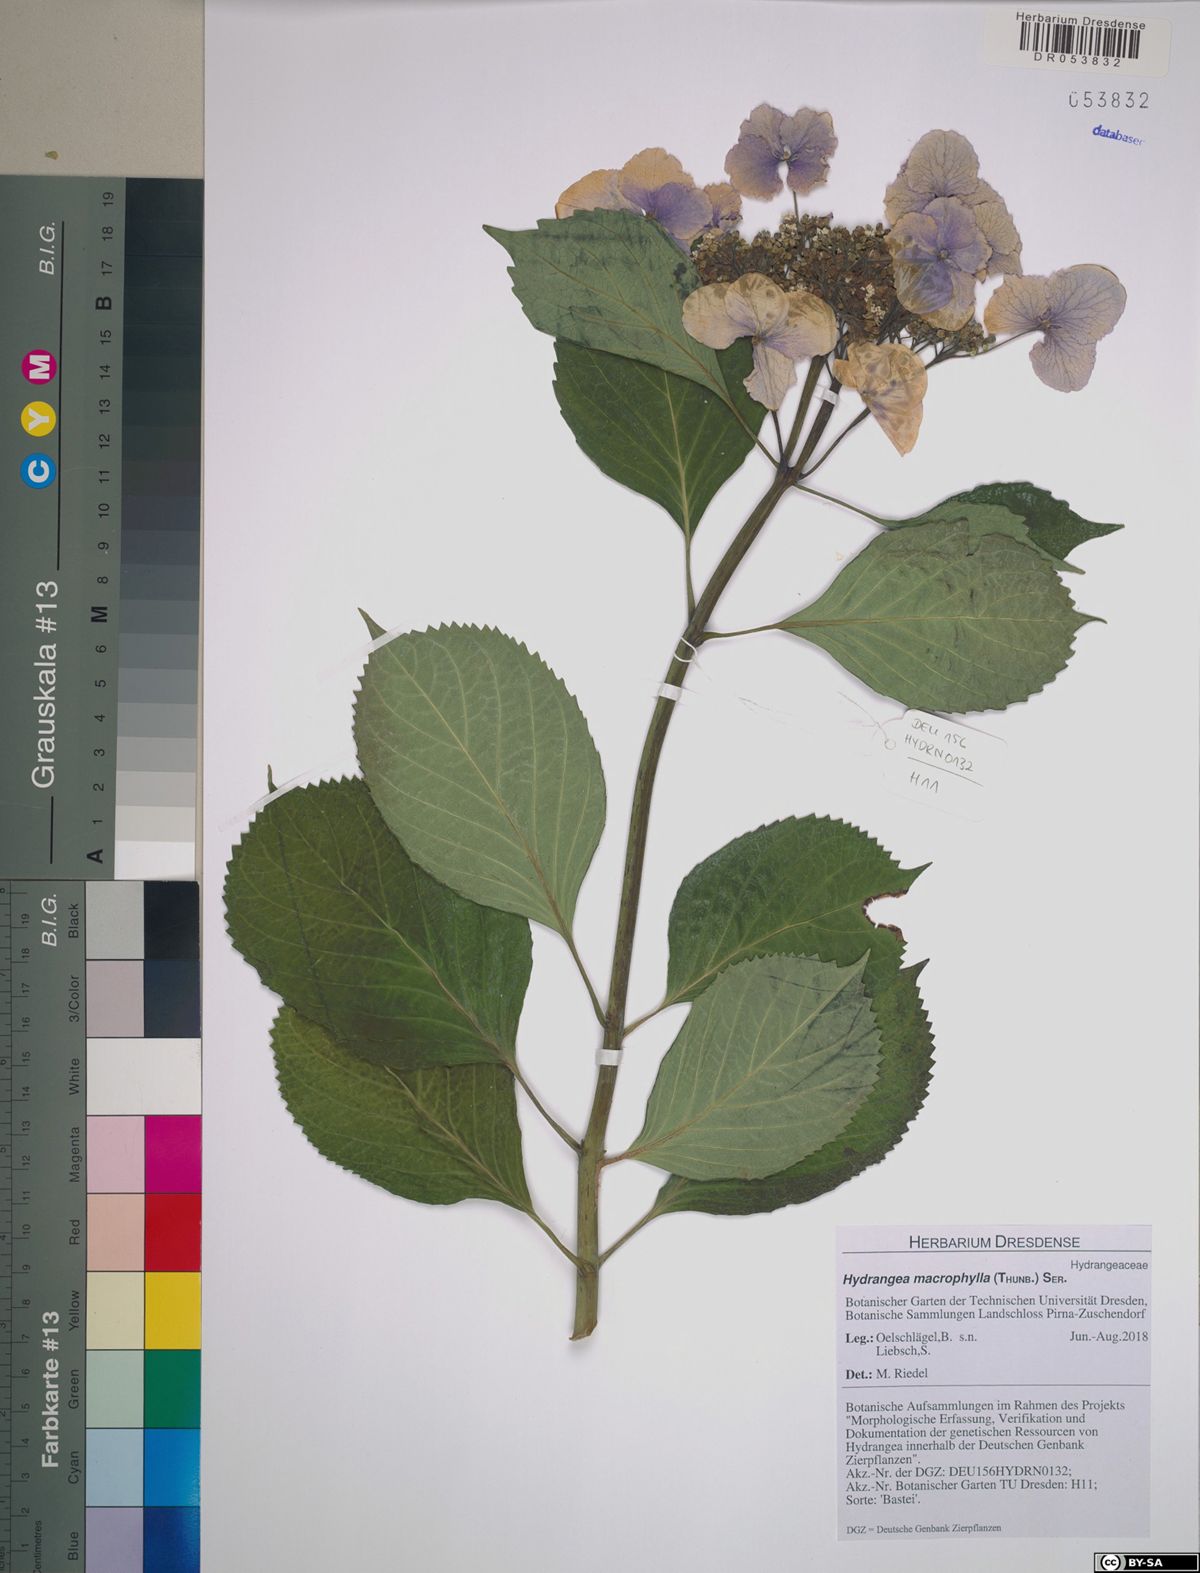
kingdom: Plantae
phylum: Tracheophyta
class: Magnoliopsida
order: Cornales
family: Hydrangeaceae
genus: Hydrangea
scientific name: Hydrangea macrophylla
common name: Hydrangea
